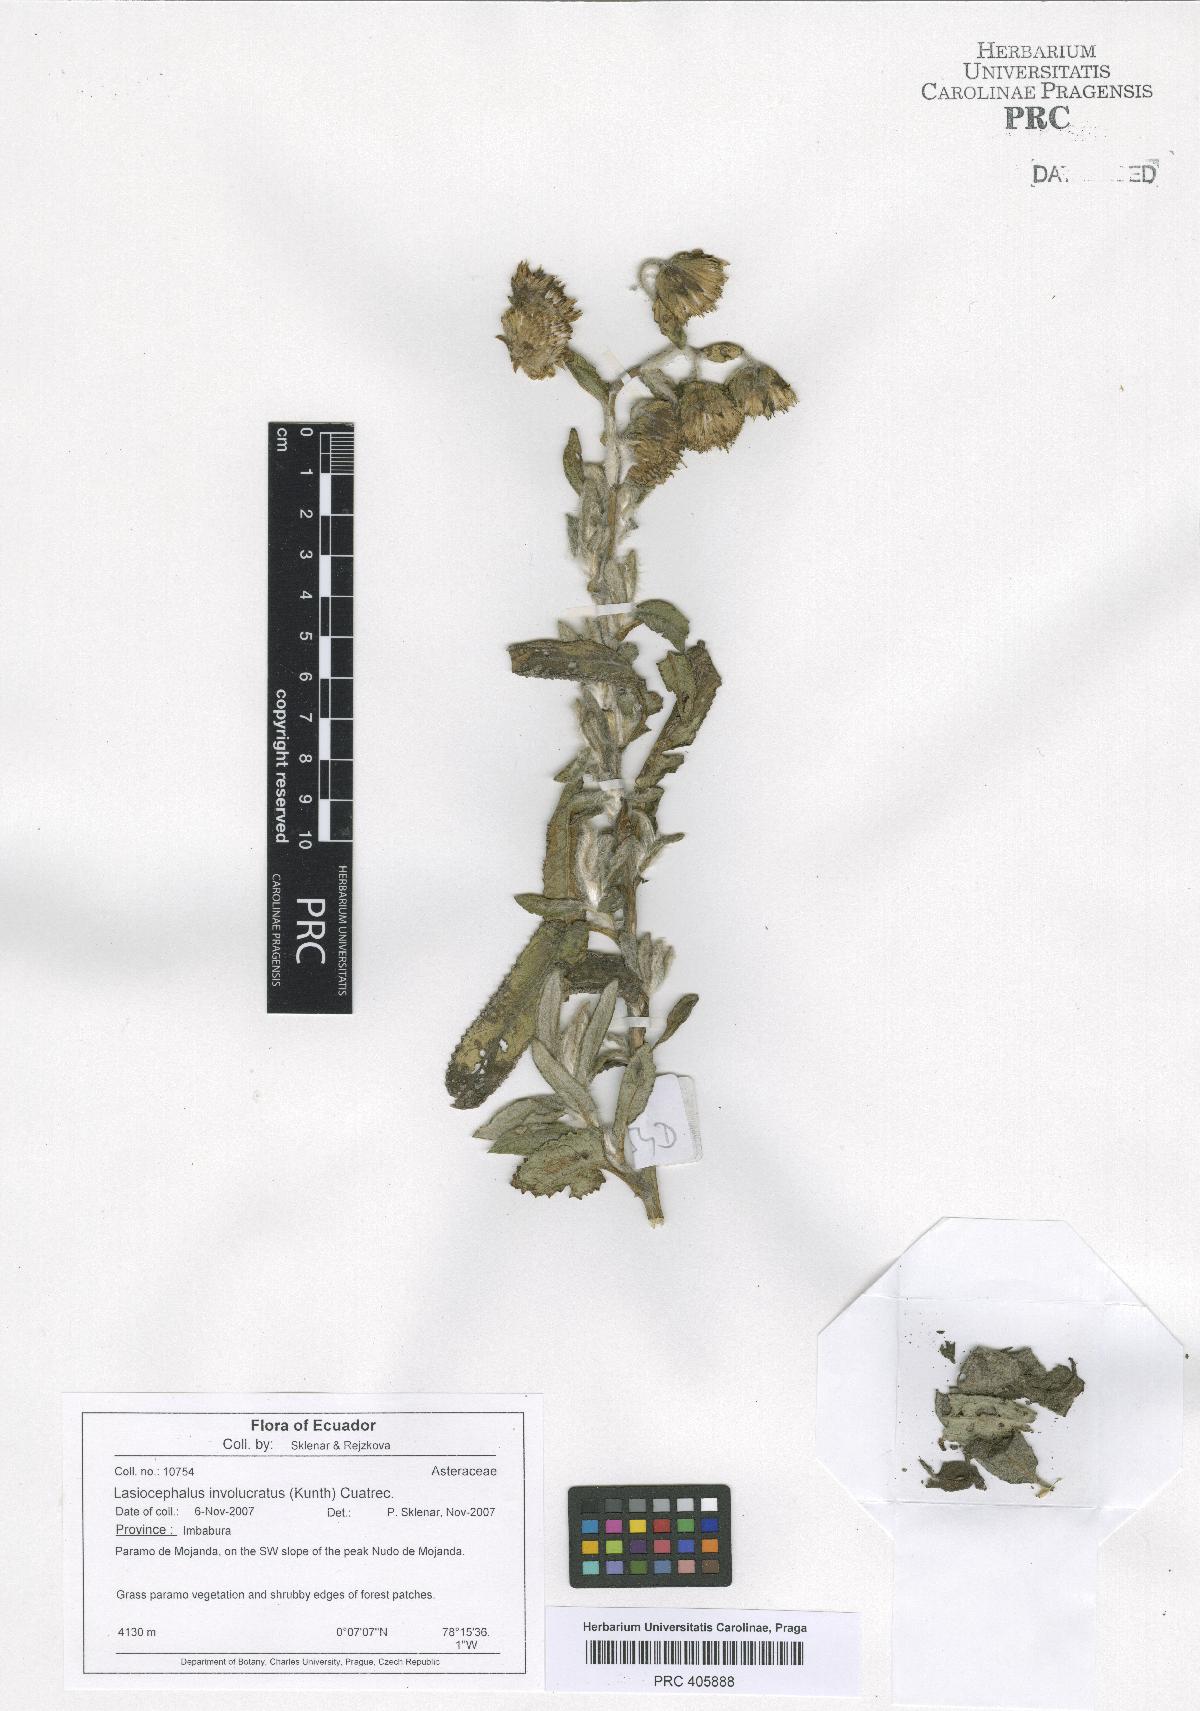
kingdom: Plantae
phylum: Tracheophyta
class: Magnoliopsida
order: Asterales
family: Asteraceae
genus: Aetheolaena
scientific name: Aetheolaena involucrata
